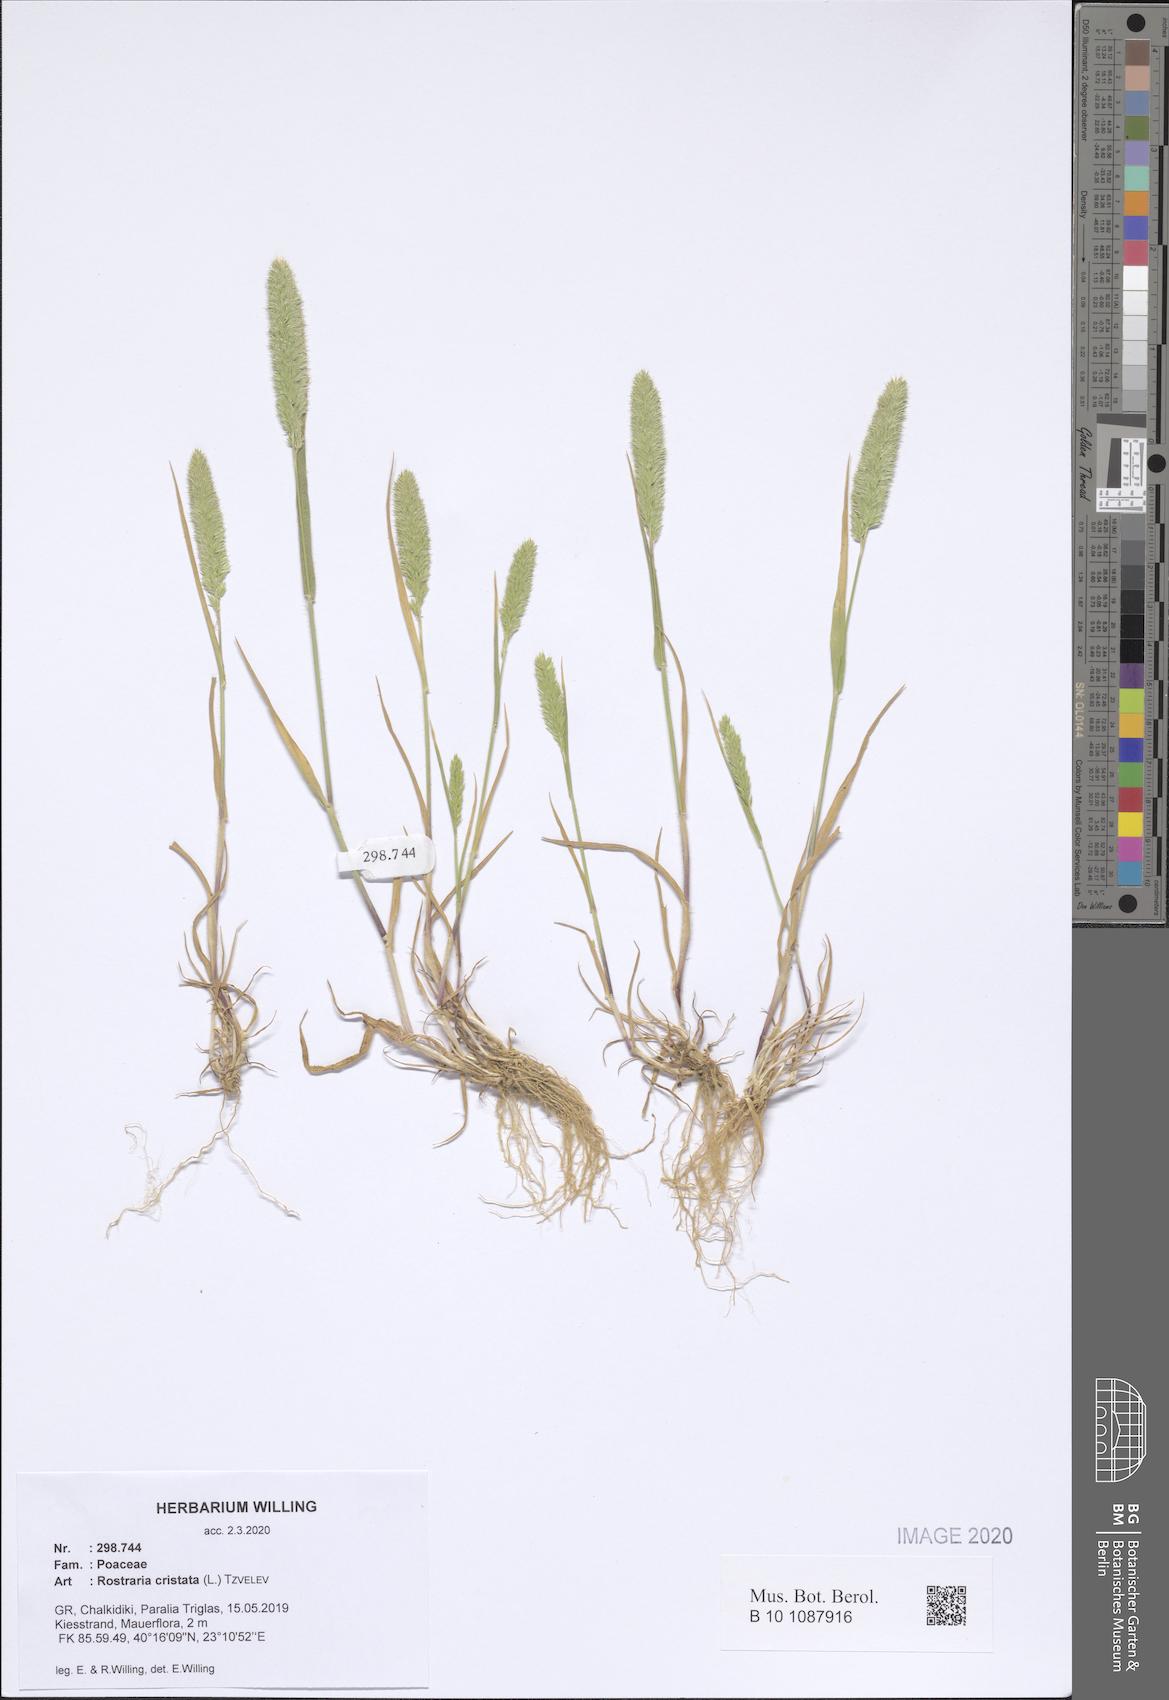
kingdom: Plantae
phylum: Tracheophyta
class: Liliopsida
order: Poales
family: Poaceae
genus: Rostraria
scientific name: Rostraria cristata
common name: Mediterranean hair-grass
